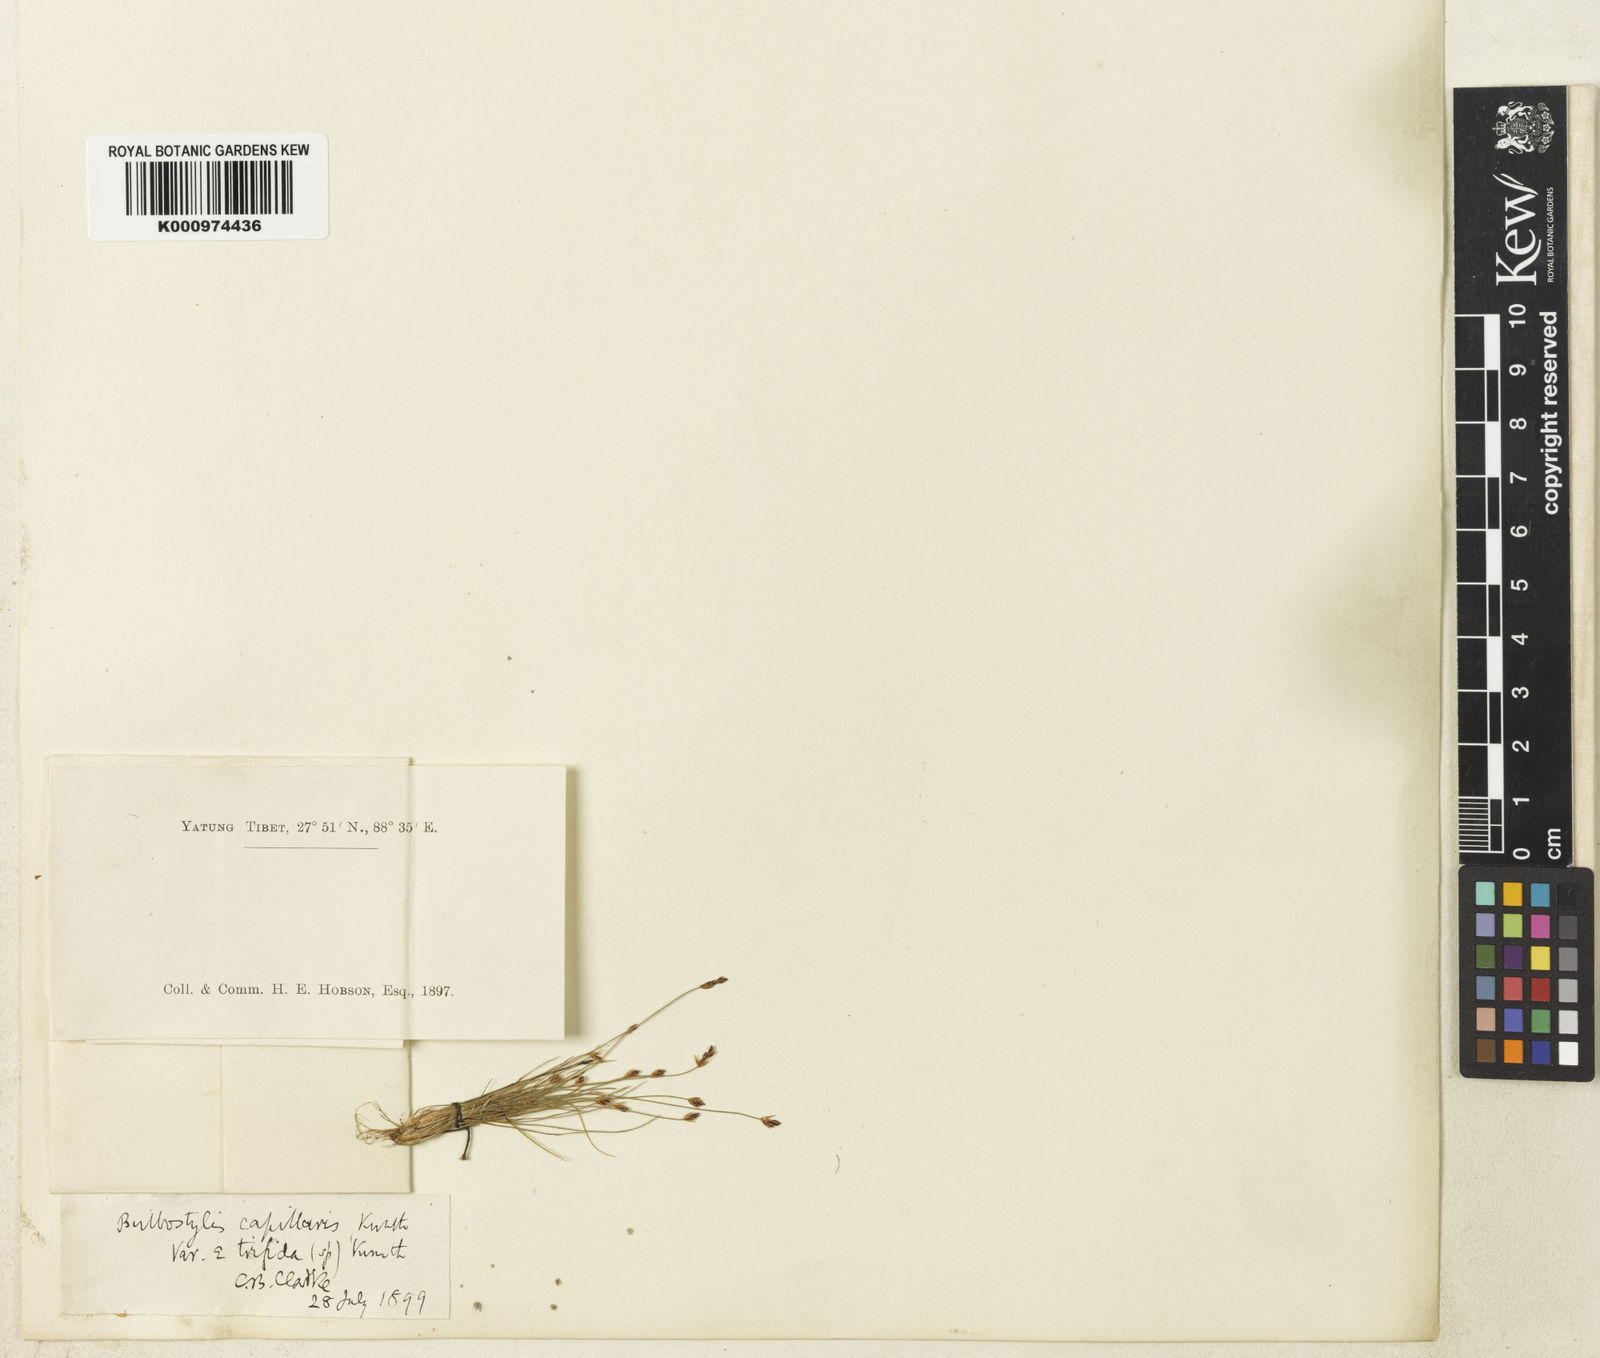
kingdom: Plantae
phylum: Tracheophyta
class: Liliopsida
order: Poales
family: Cyperaceae
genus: Bulbostylis
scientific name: Bulbostylis capillaris
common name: Densetuft hairsedge
